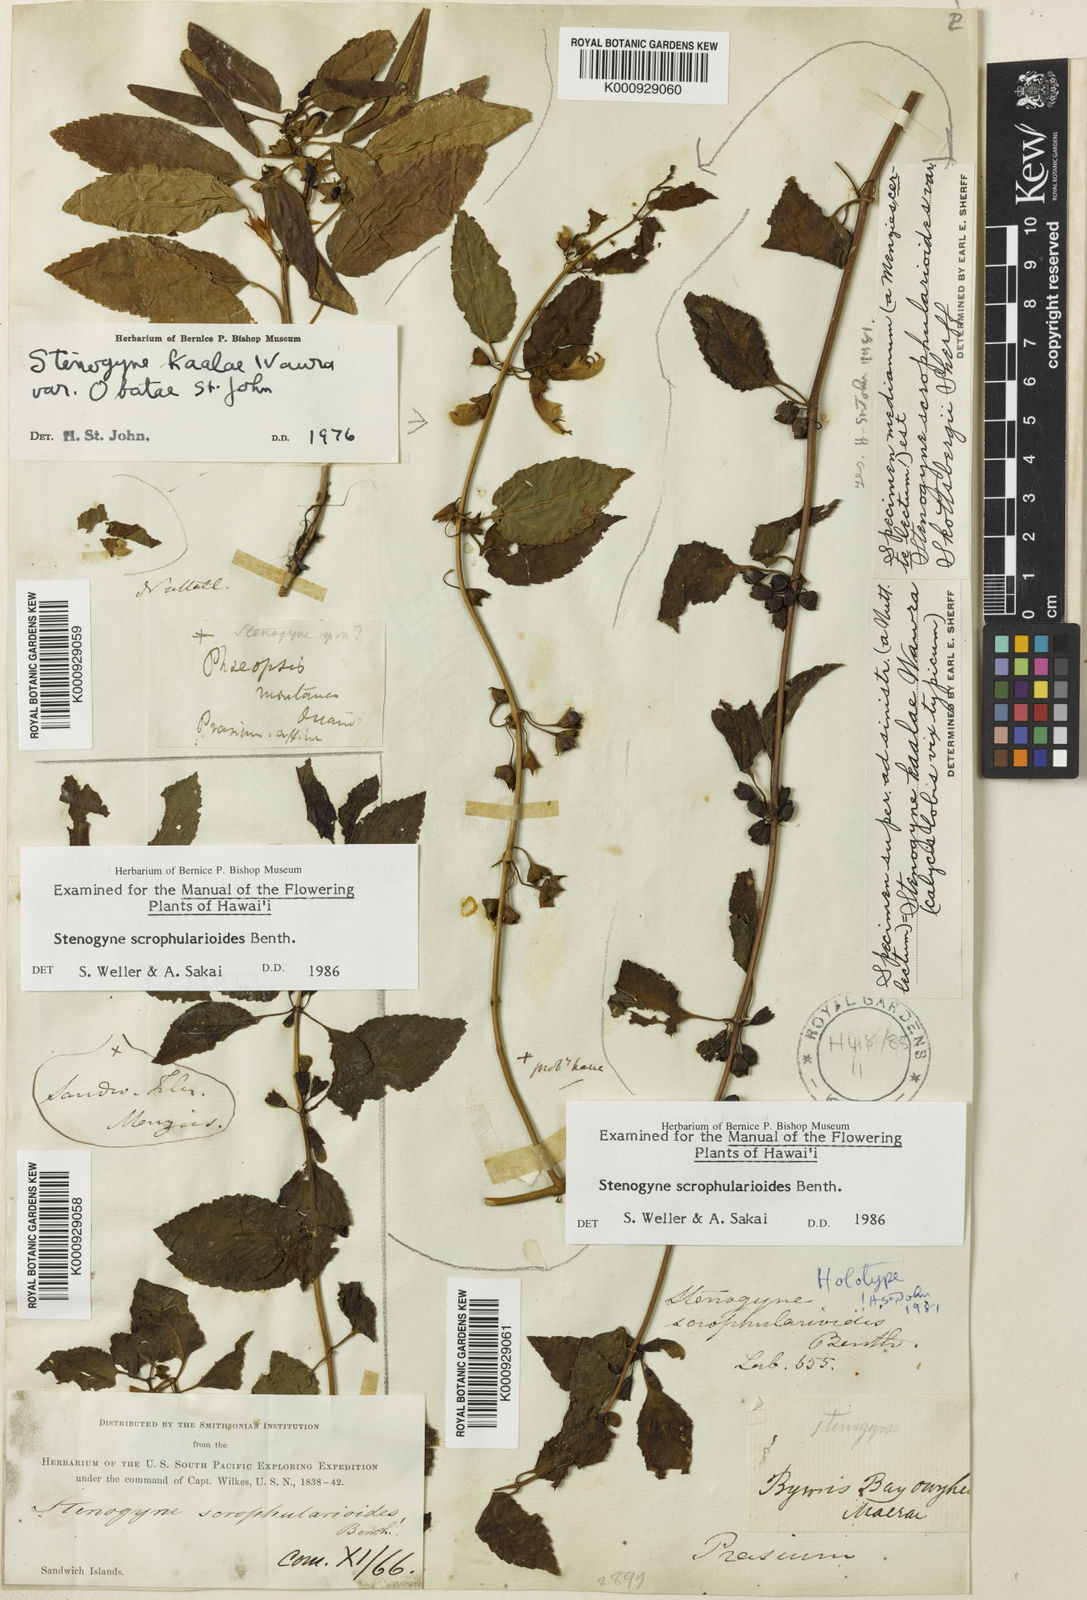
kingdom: Plantae
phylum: Tracheophyta
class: Magnoliopsida
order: Lamiales
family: Lamiaceae
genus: Stenogyne
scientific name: Stenogyne scrophularioides
